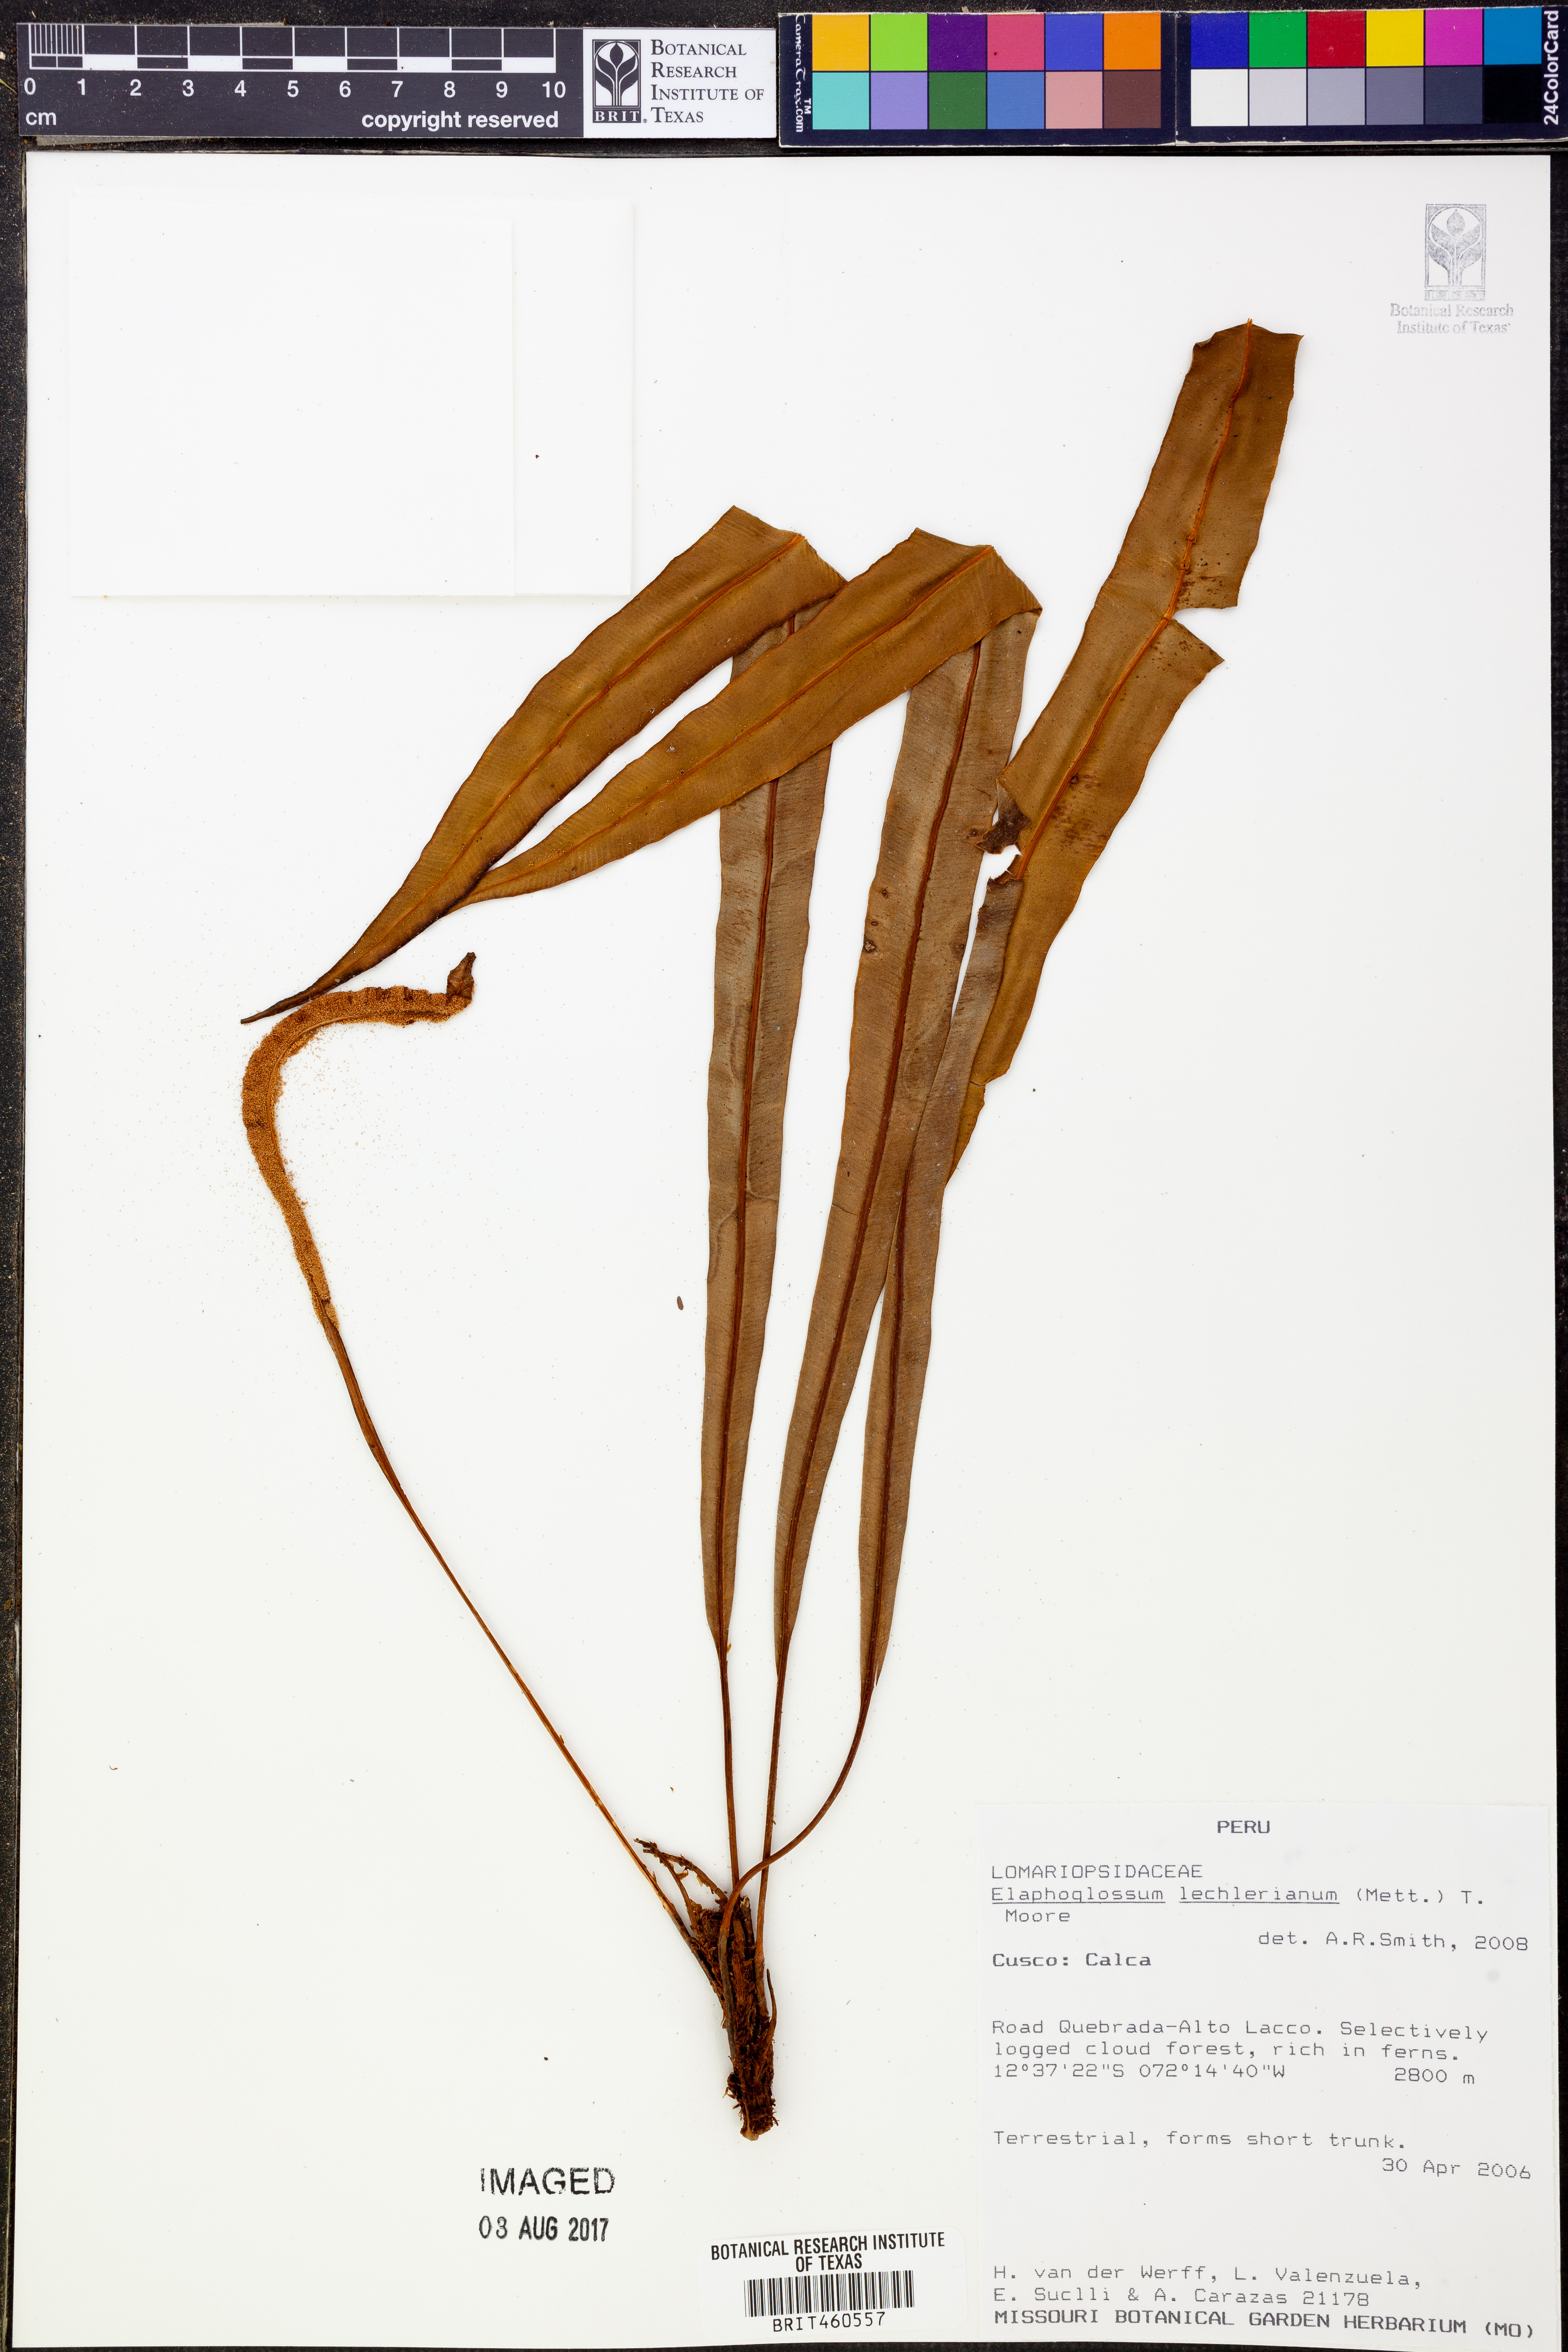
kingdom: Plantae
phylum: Tracheophyta
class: Polypodiopsida
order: Polypodiales
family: Dryopteridaceae
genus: Elaphoglossum
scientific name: Elaphoglossum lechlerianum
